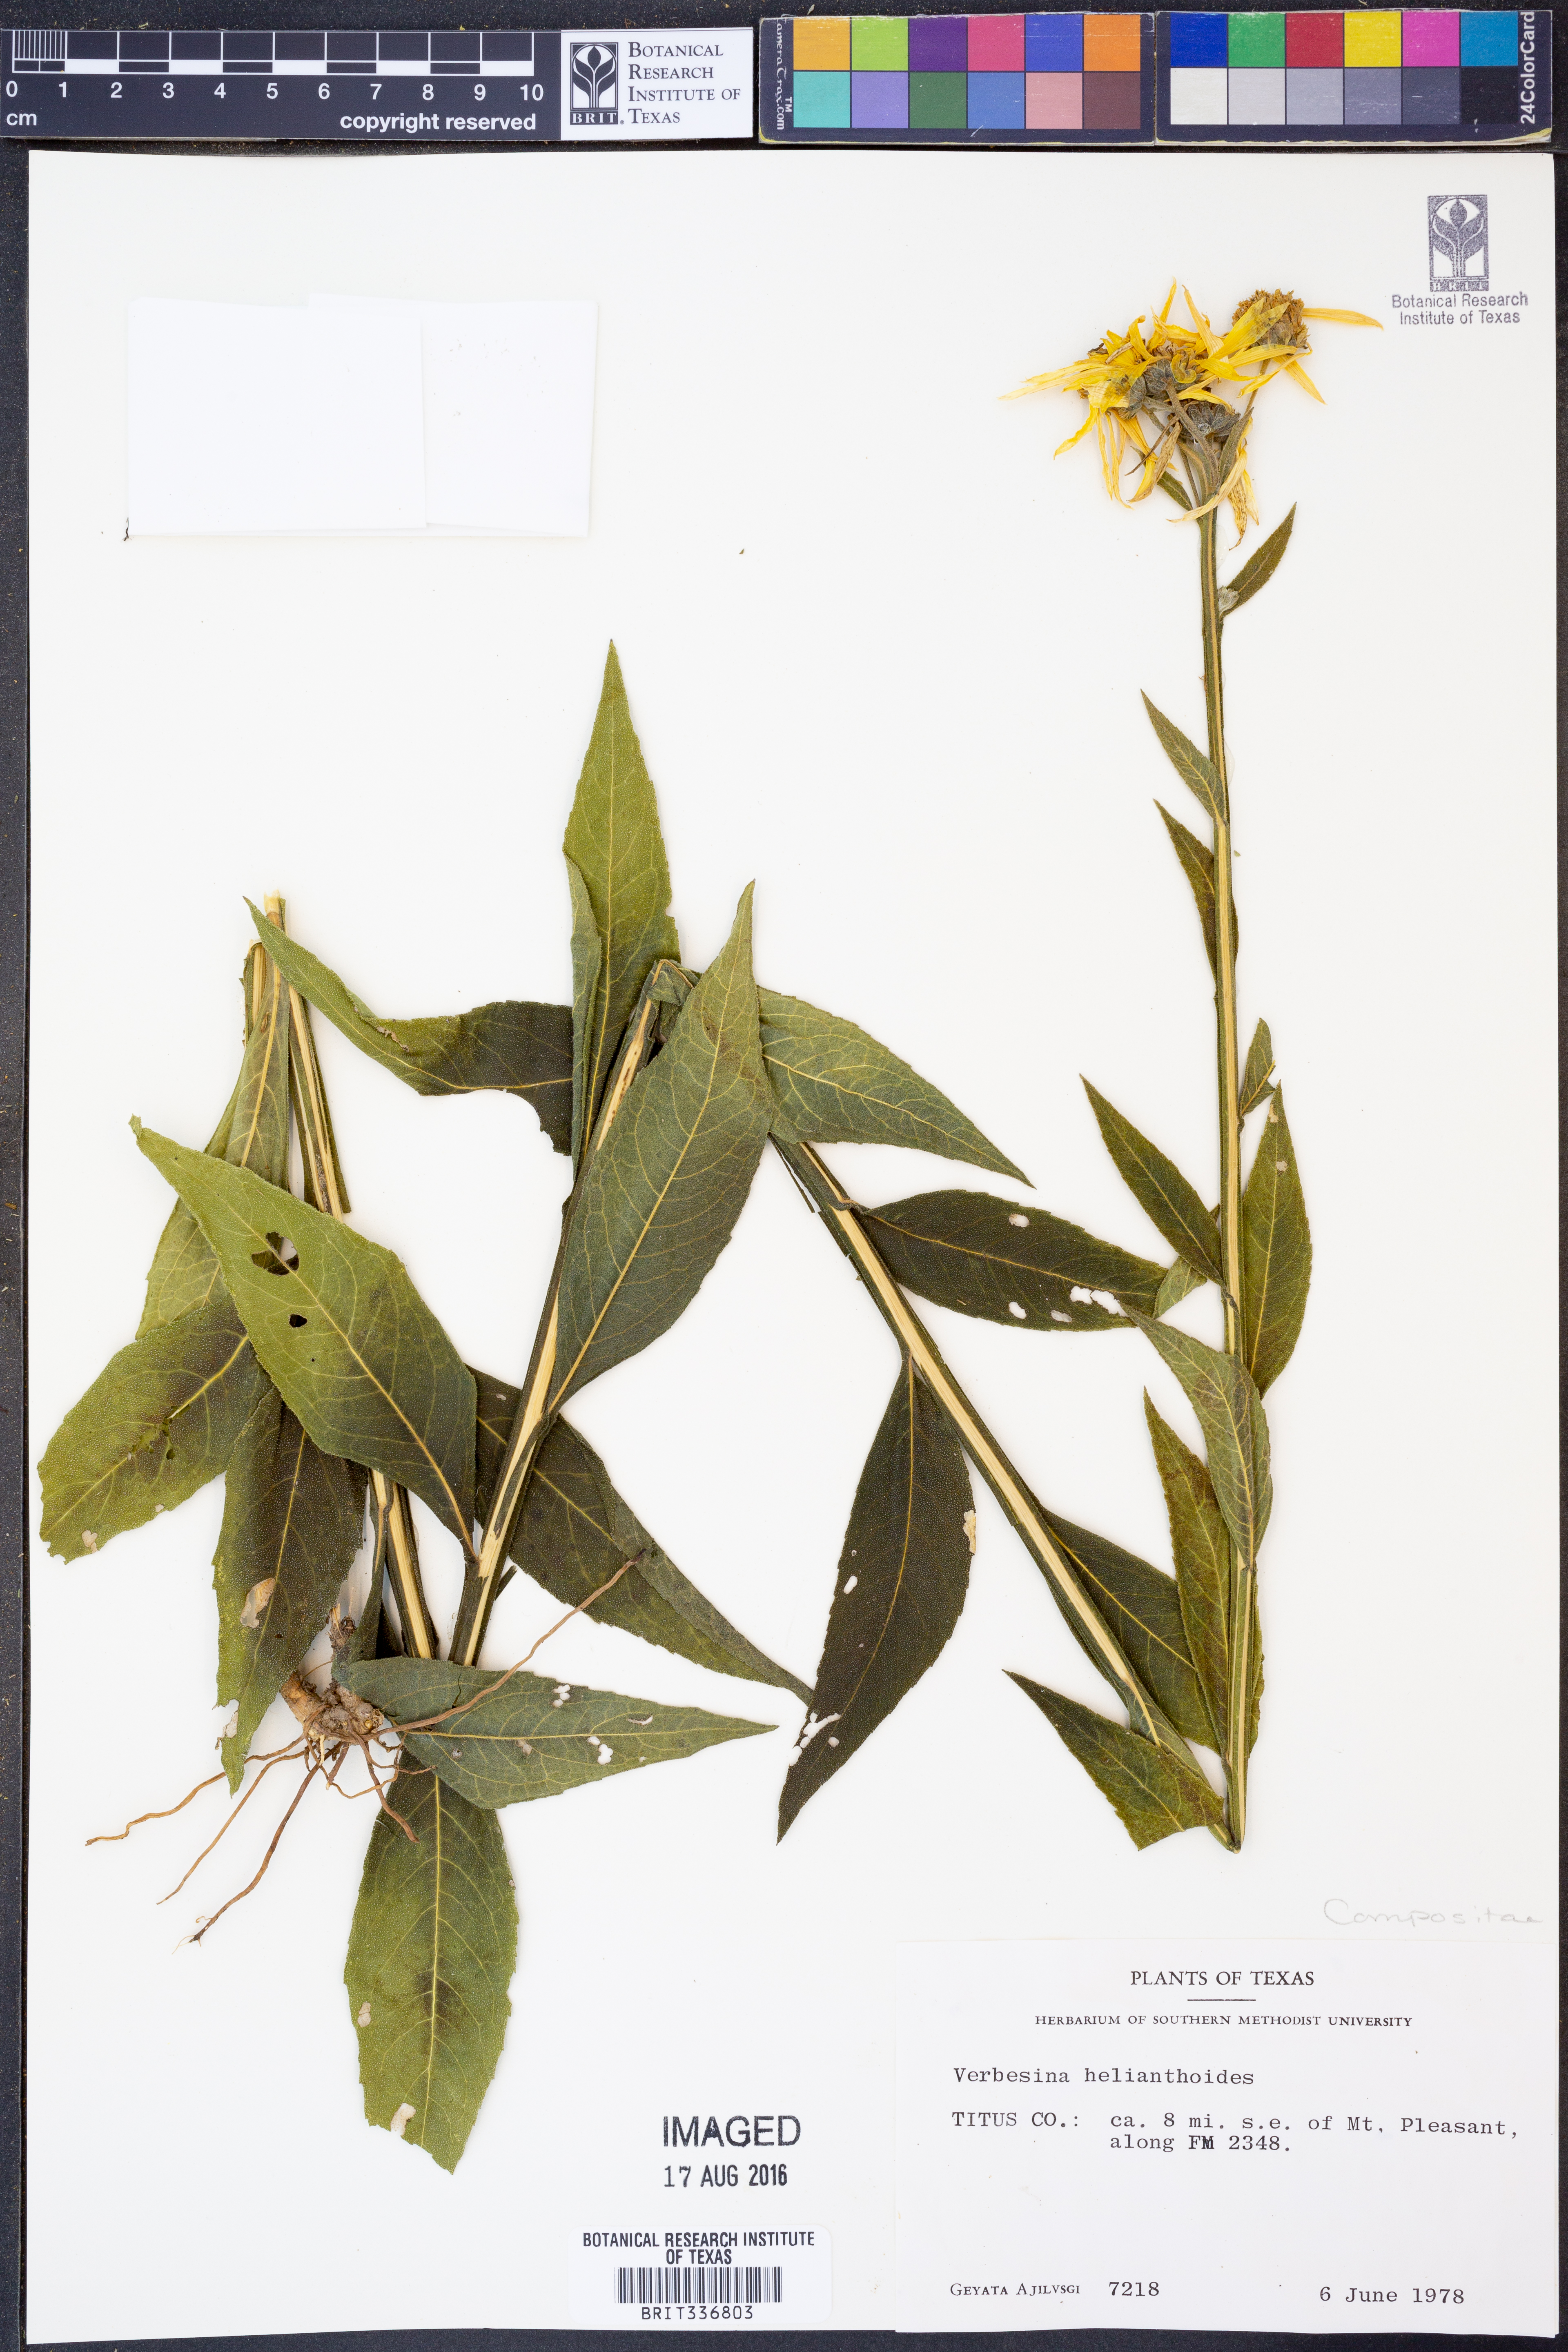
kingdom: Plantae
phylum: Tracheophyta
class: Magnoliopsida
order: Asterales
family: Asteraceae
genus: Verbesina
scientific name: Verbesina helianthoides
